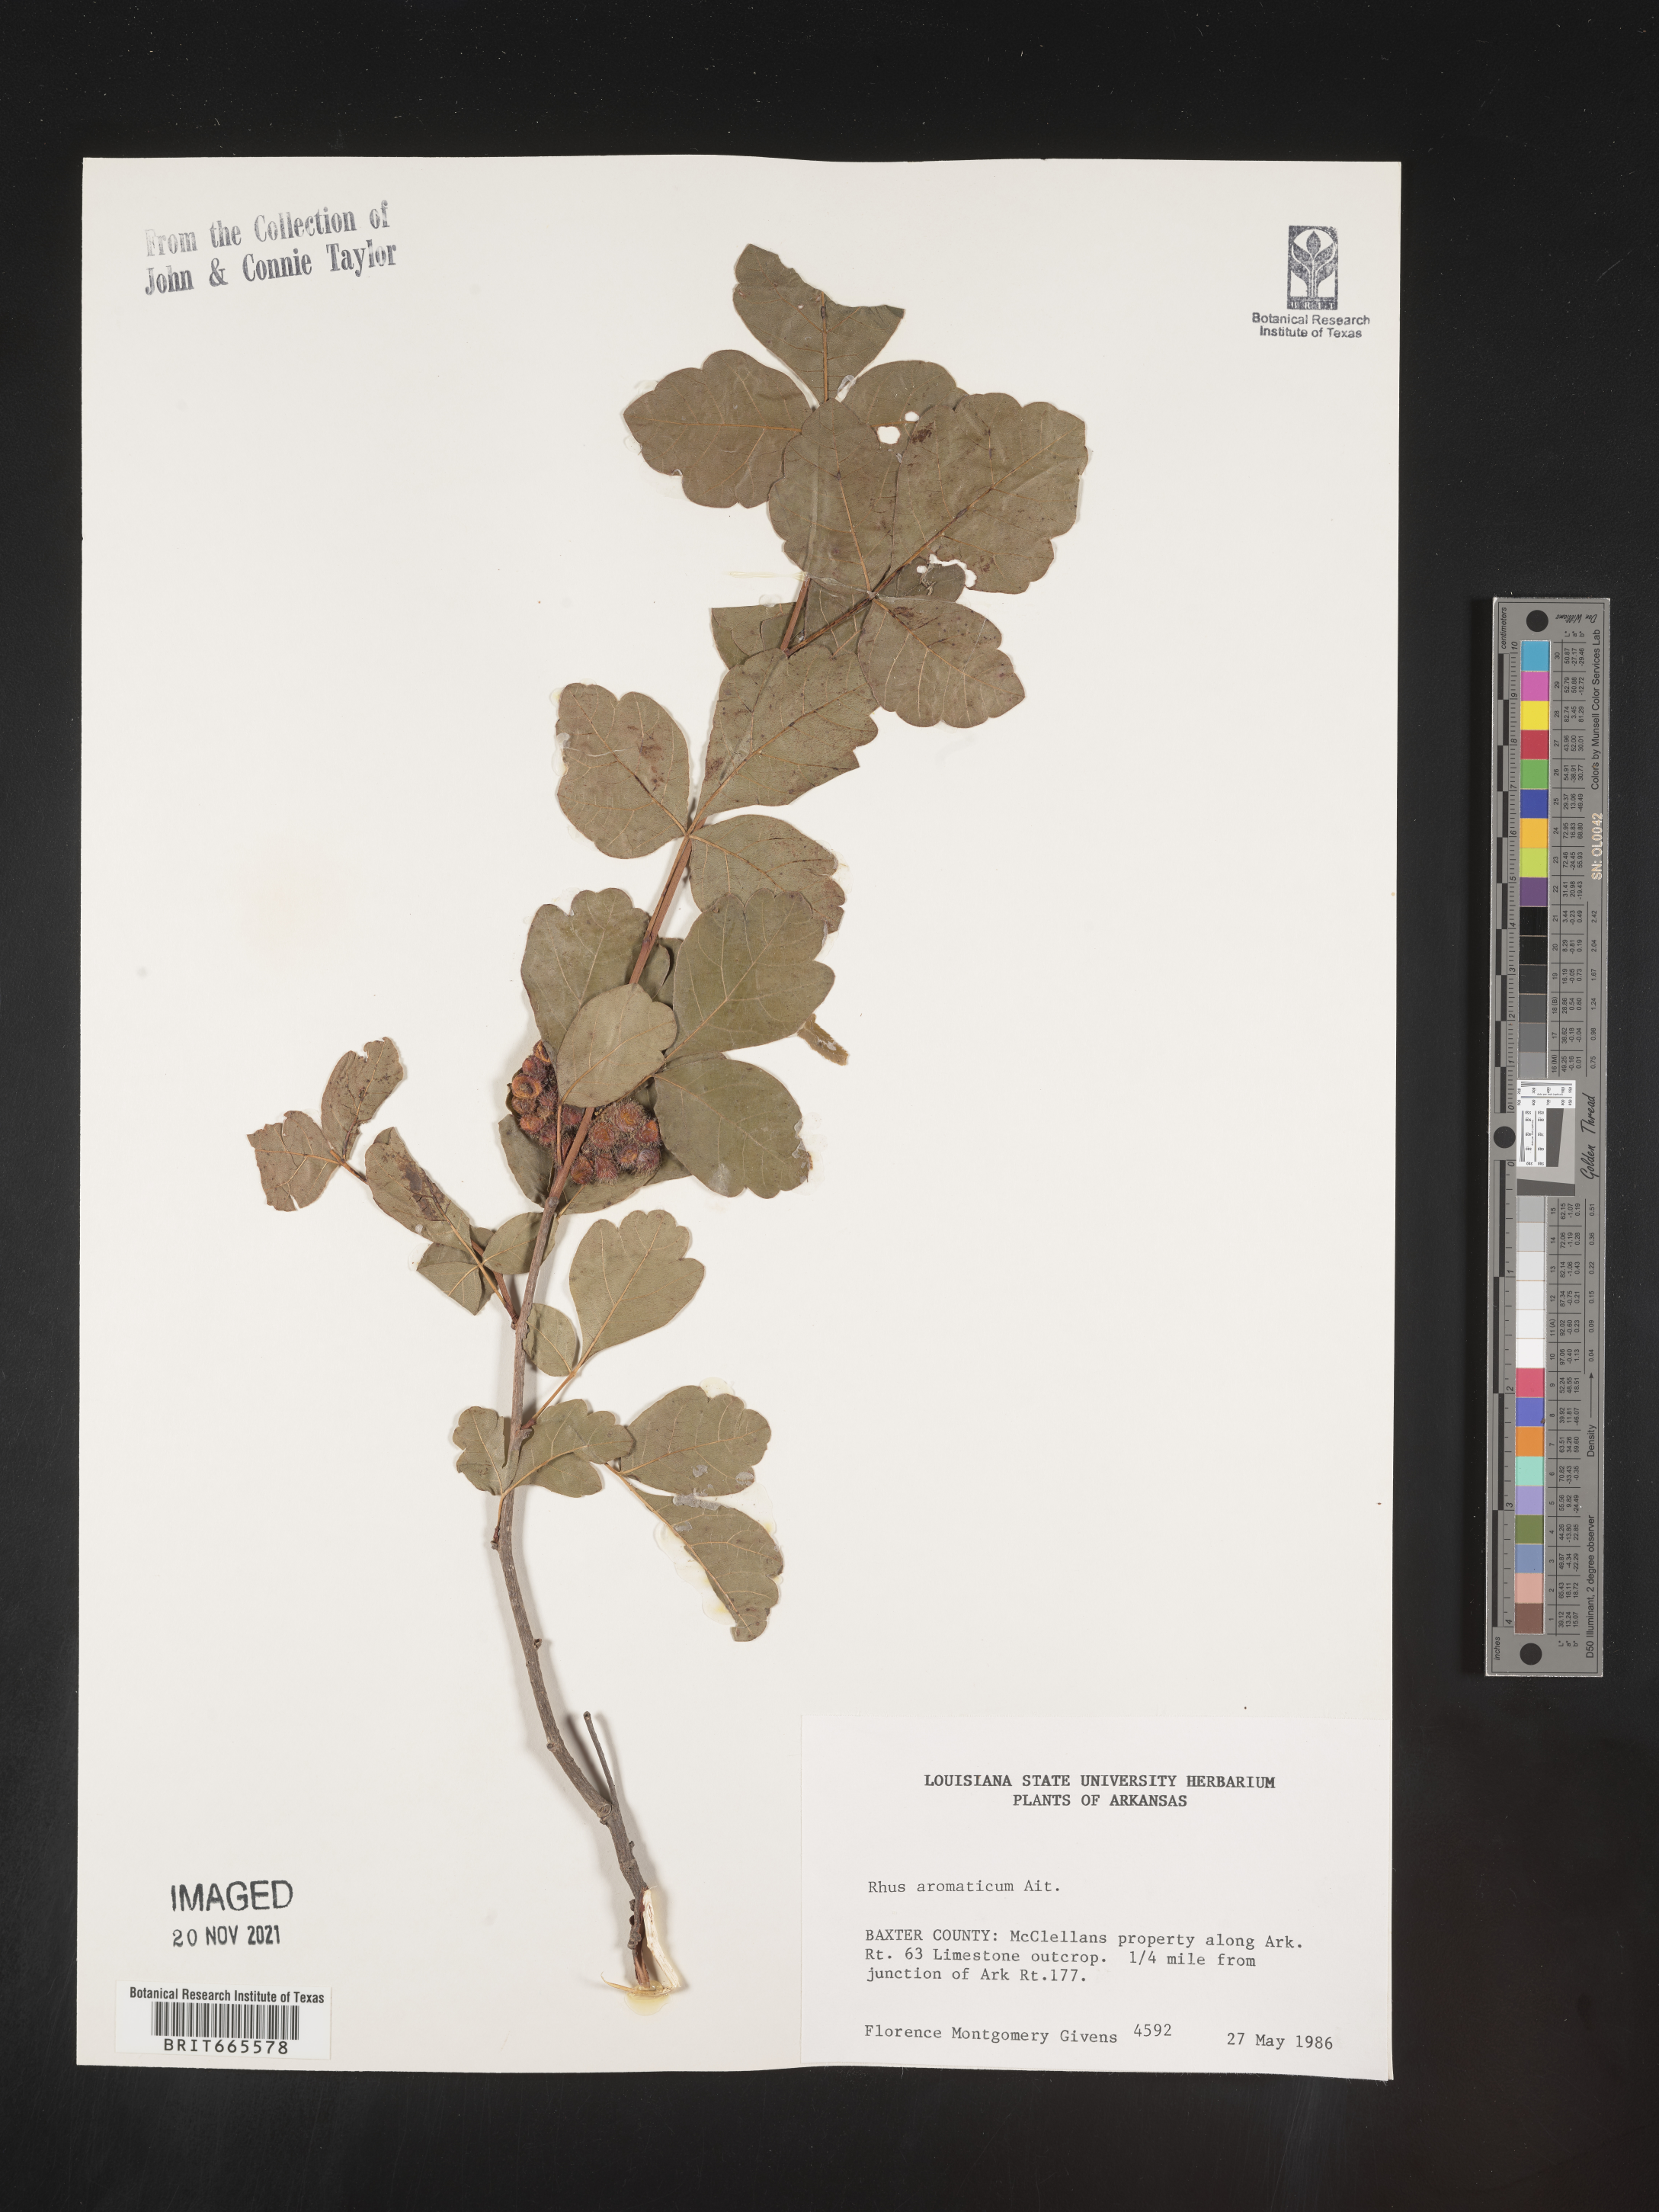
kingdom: Plantae
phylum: Tracheophyta
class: Magnoliopsida
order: Sapindales
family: Anacardiaceae
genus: Rhus
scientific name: Rhus aromatica
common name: Aromatic sumac
